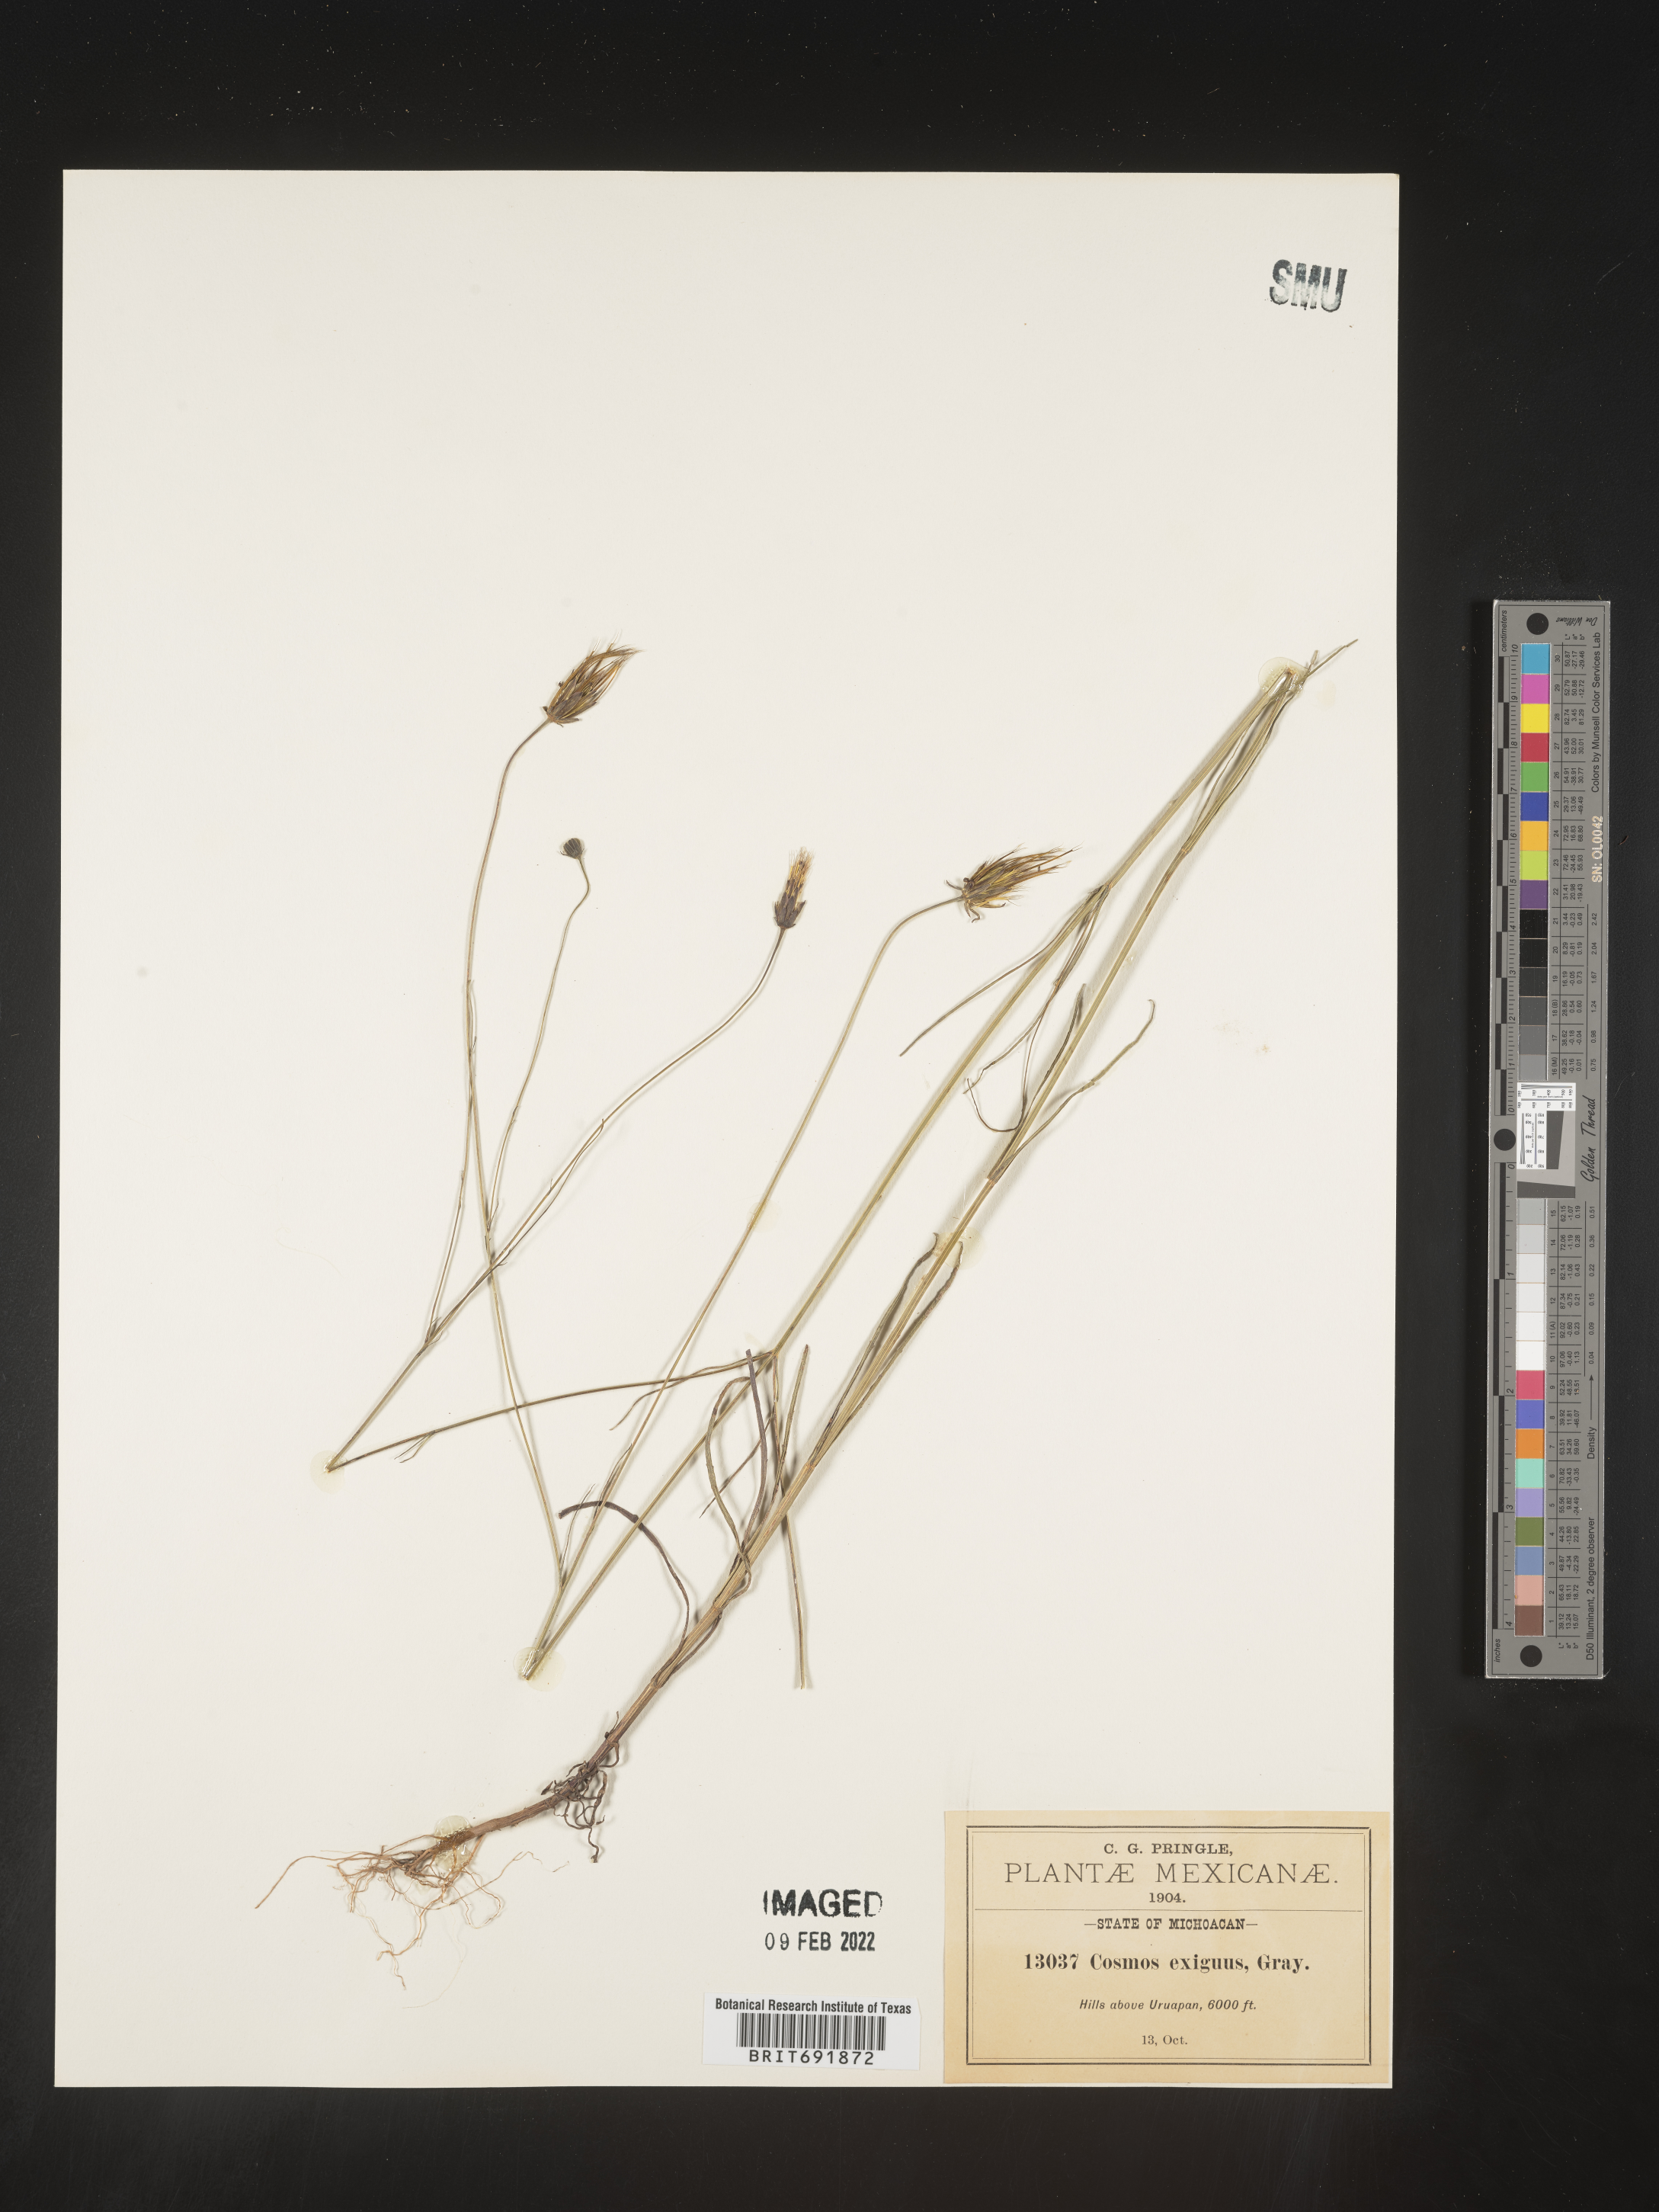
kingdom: Plantae
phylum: Tracheophyta
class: Magnoliopsida
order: Asterales
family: Asteraceae
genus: Cosmos
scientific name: Cosmos
